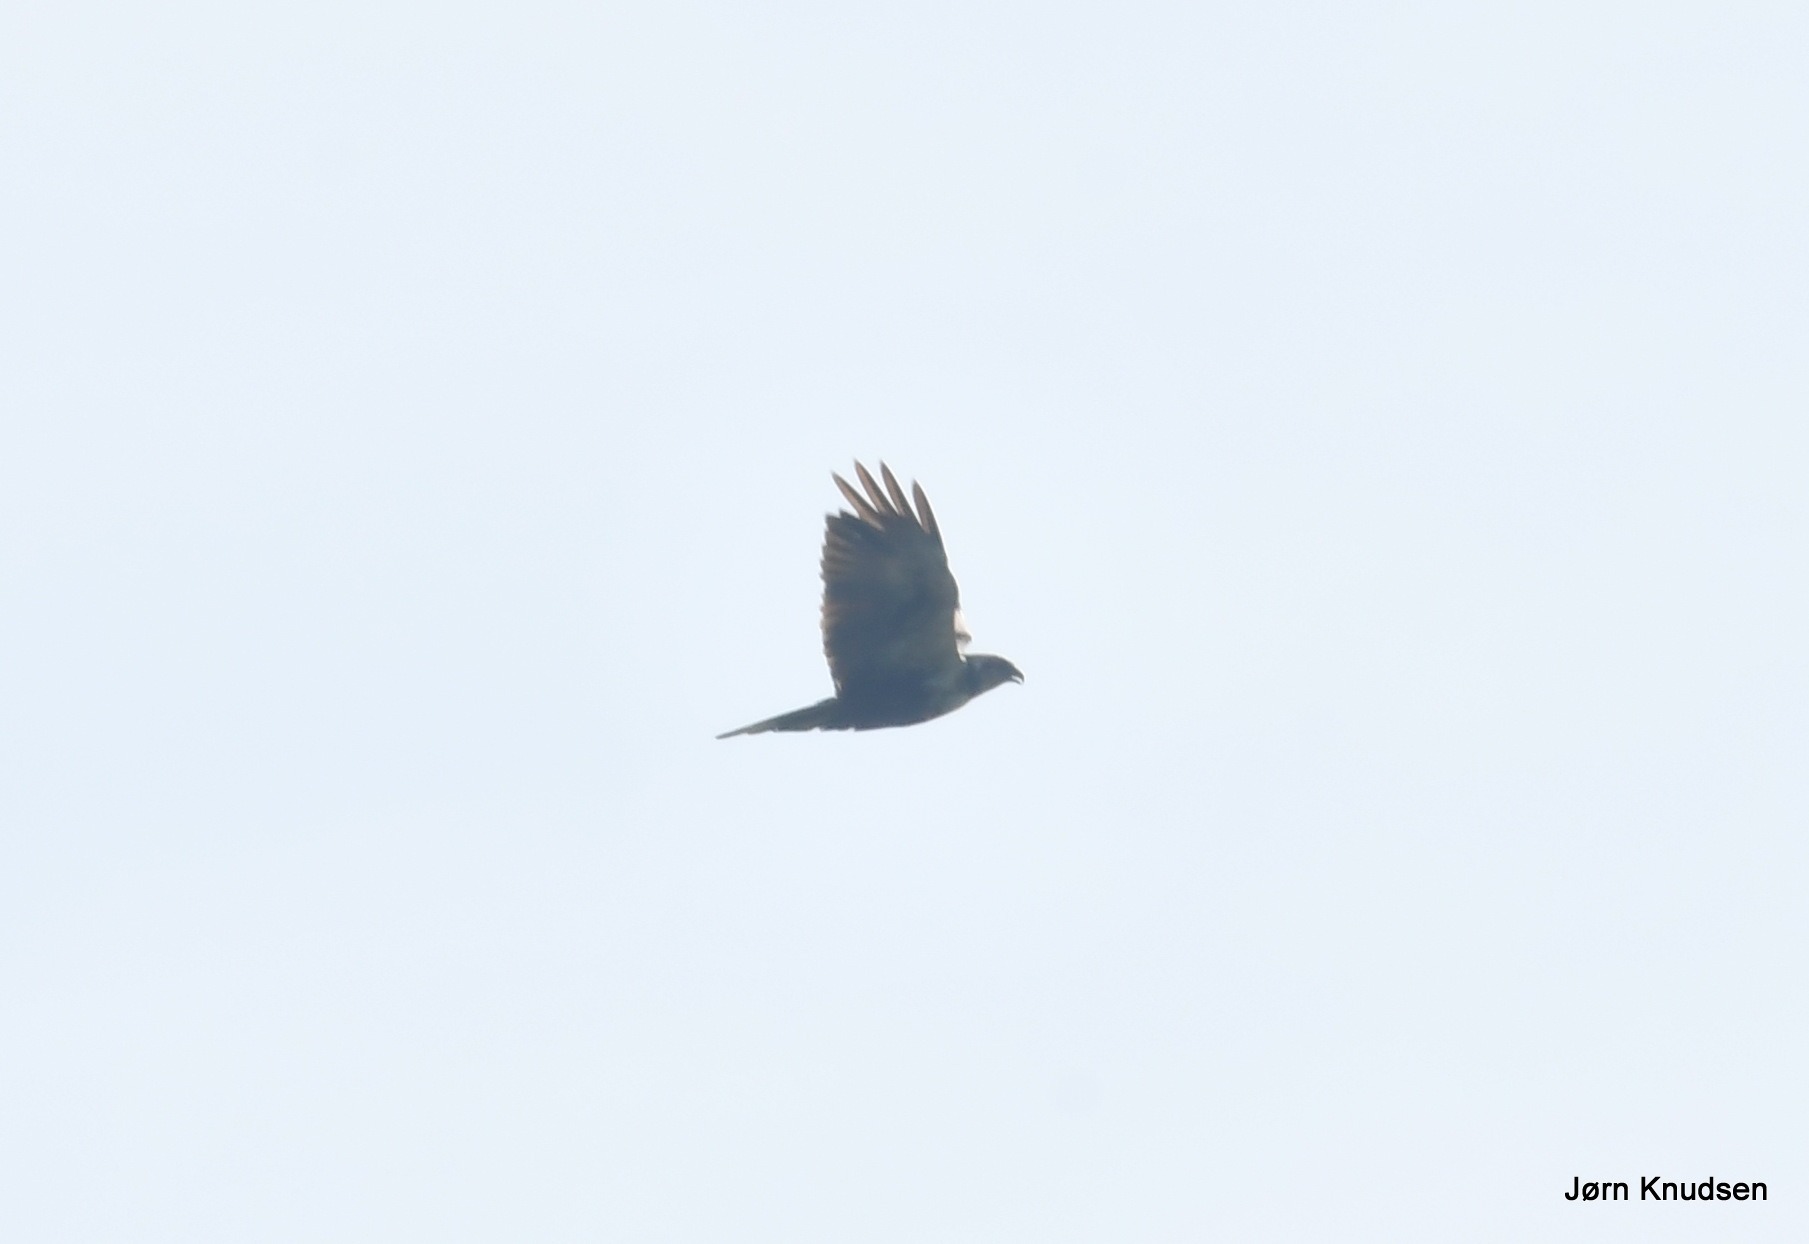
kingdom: Animalia
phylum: Chordata
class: Aves
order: Accipitriformes
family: Accipitridae
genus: Circus
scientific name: Circus aeruginosus
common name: Rørhøg
